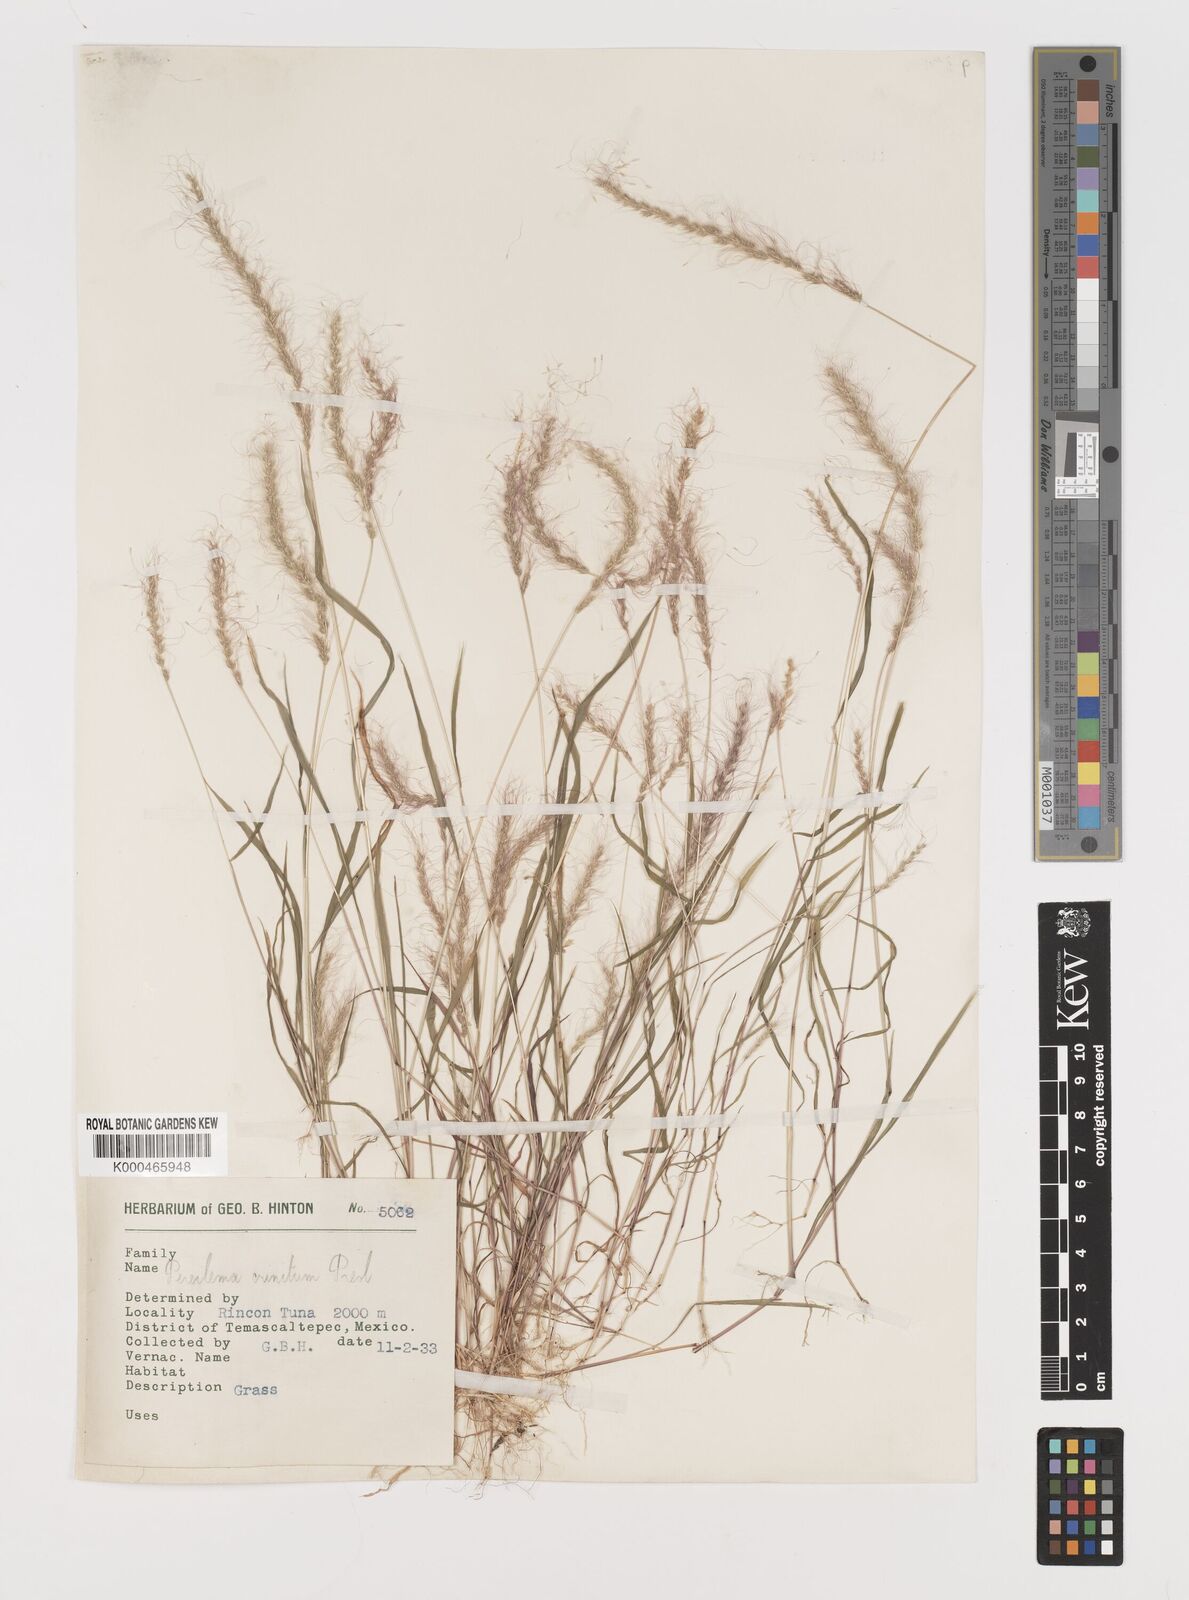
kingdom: Plantae
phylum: Tracheophyta
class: Liliopsida
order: Poales
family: Poaceae
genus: Muhlenbergia
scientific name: Muhlenbergia pereilema
